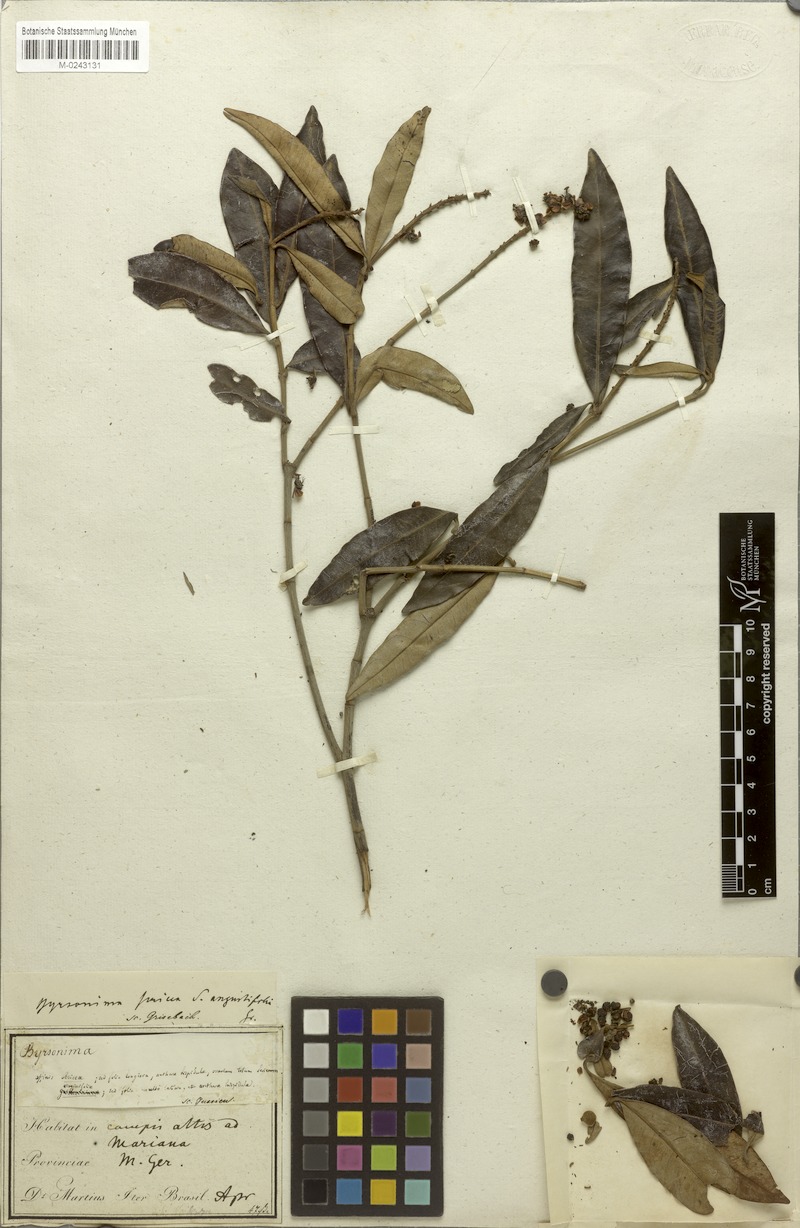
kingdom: Plantae
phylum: Tracheophyta
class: Magnoliopsida
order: Malpighiales
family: Malpighiaceae
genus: Byrsonima
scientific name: Byrsonima sericea
